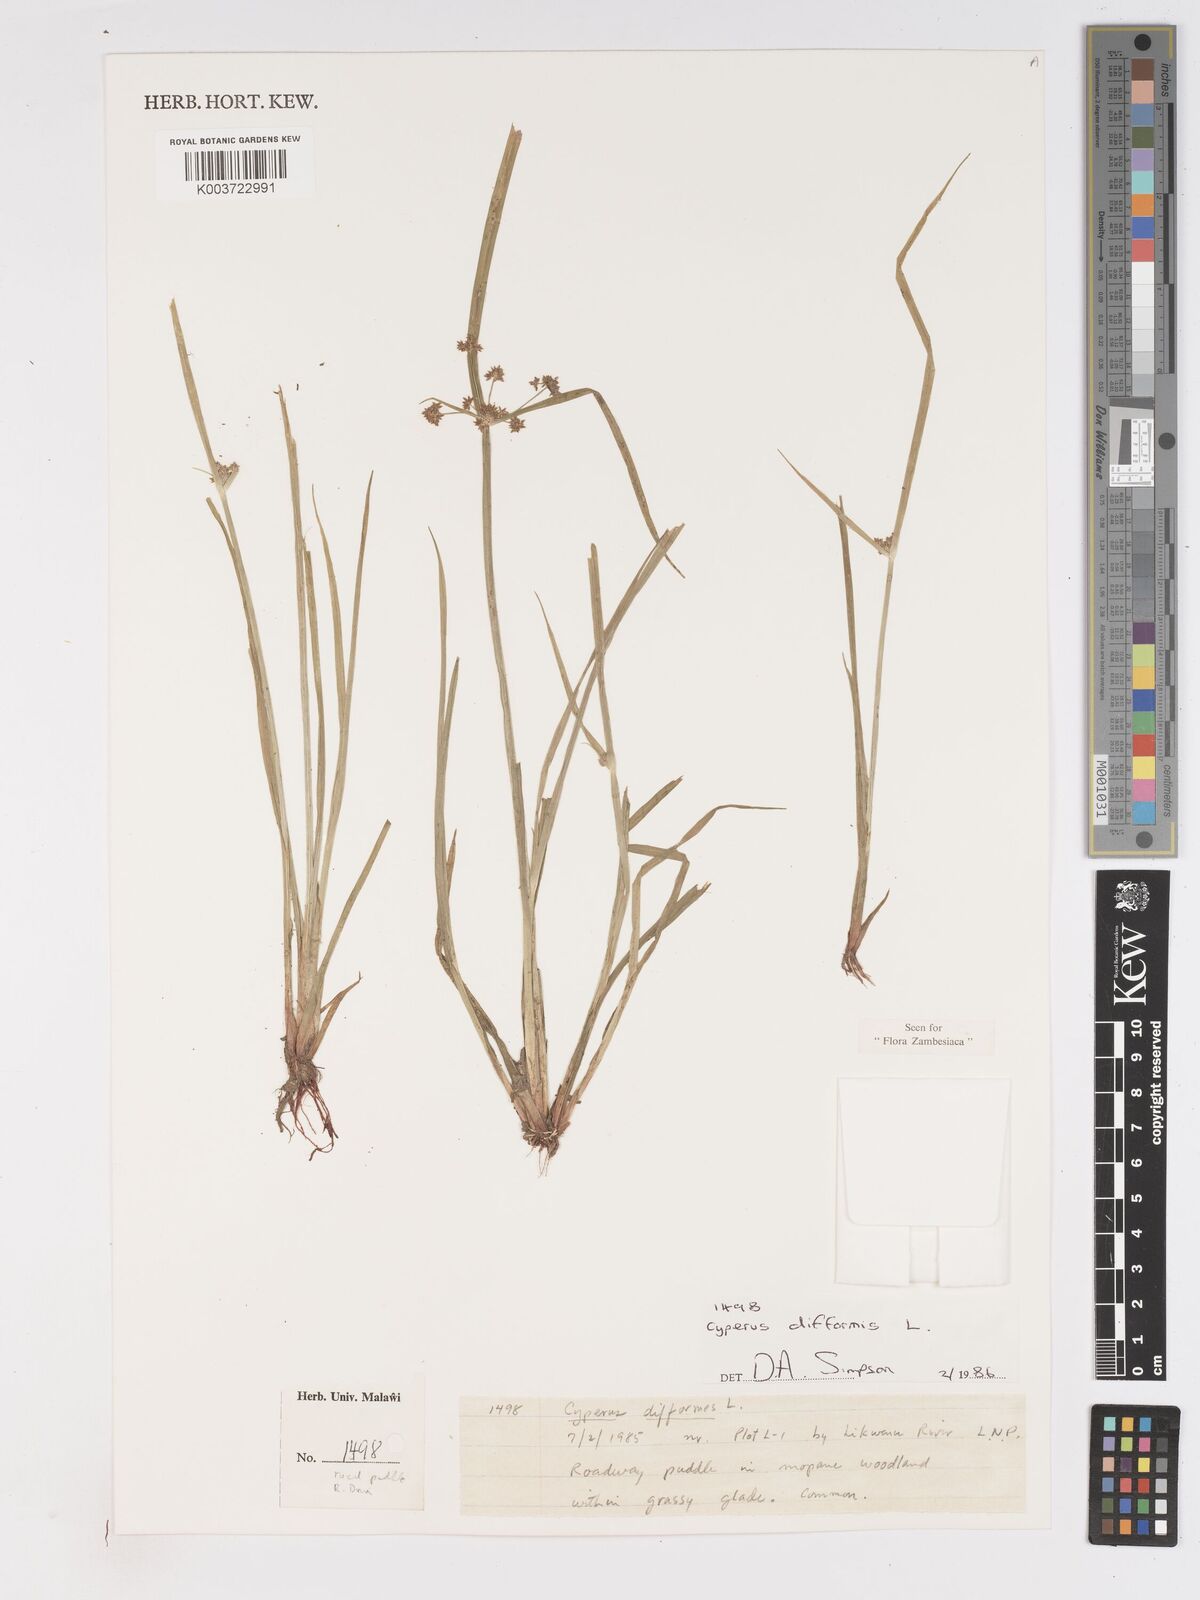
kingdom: Plantae
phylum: Tracheophyta
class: Liliopsida
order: Poales
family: Cyperaceae
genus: Cyperus
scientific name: Cyperus difformis
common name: Variable flatsedge
